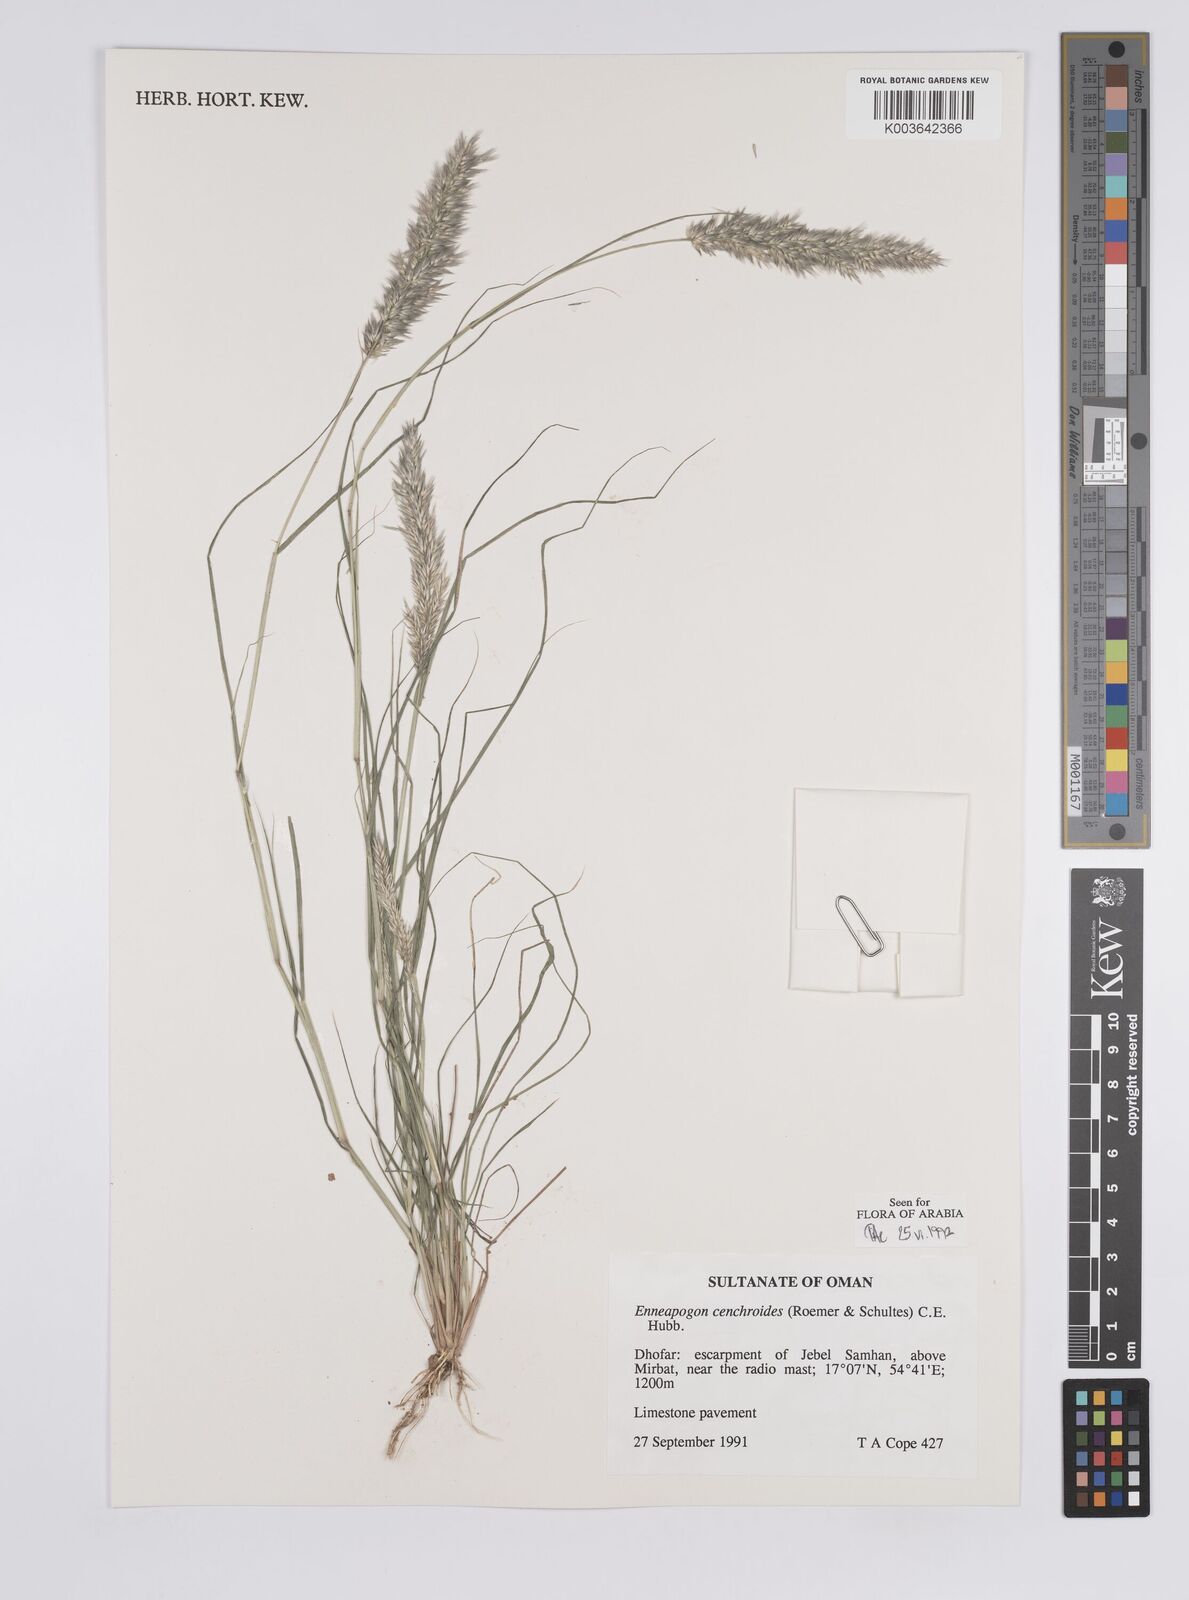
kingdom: Plantae
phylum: Tracheophyta
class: Liliopsida
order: Poales
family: Poaceae
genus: Enneapogon
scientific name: Enneapogon cenchroides
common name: Soft feather pappusgrass
